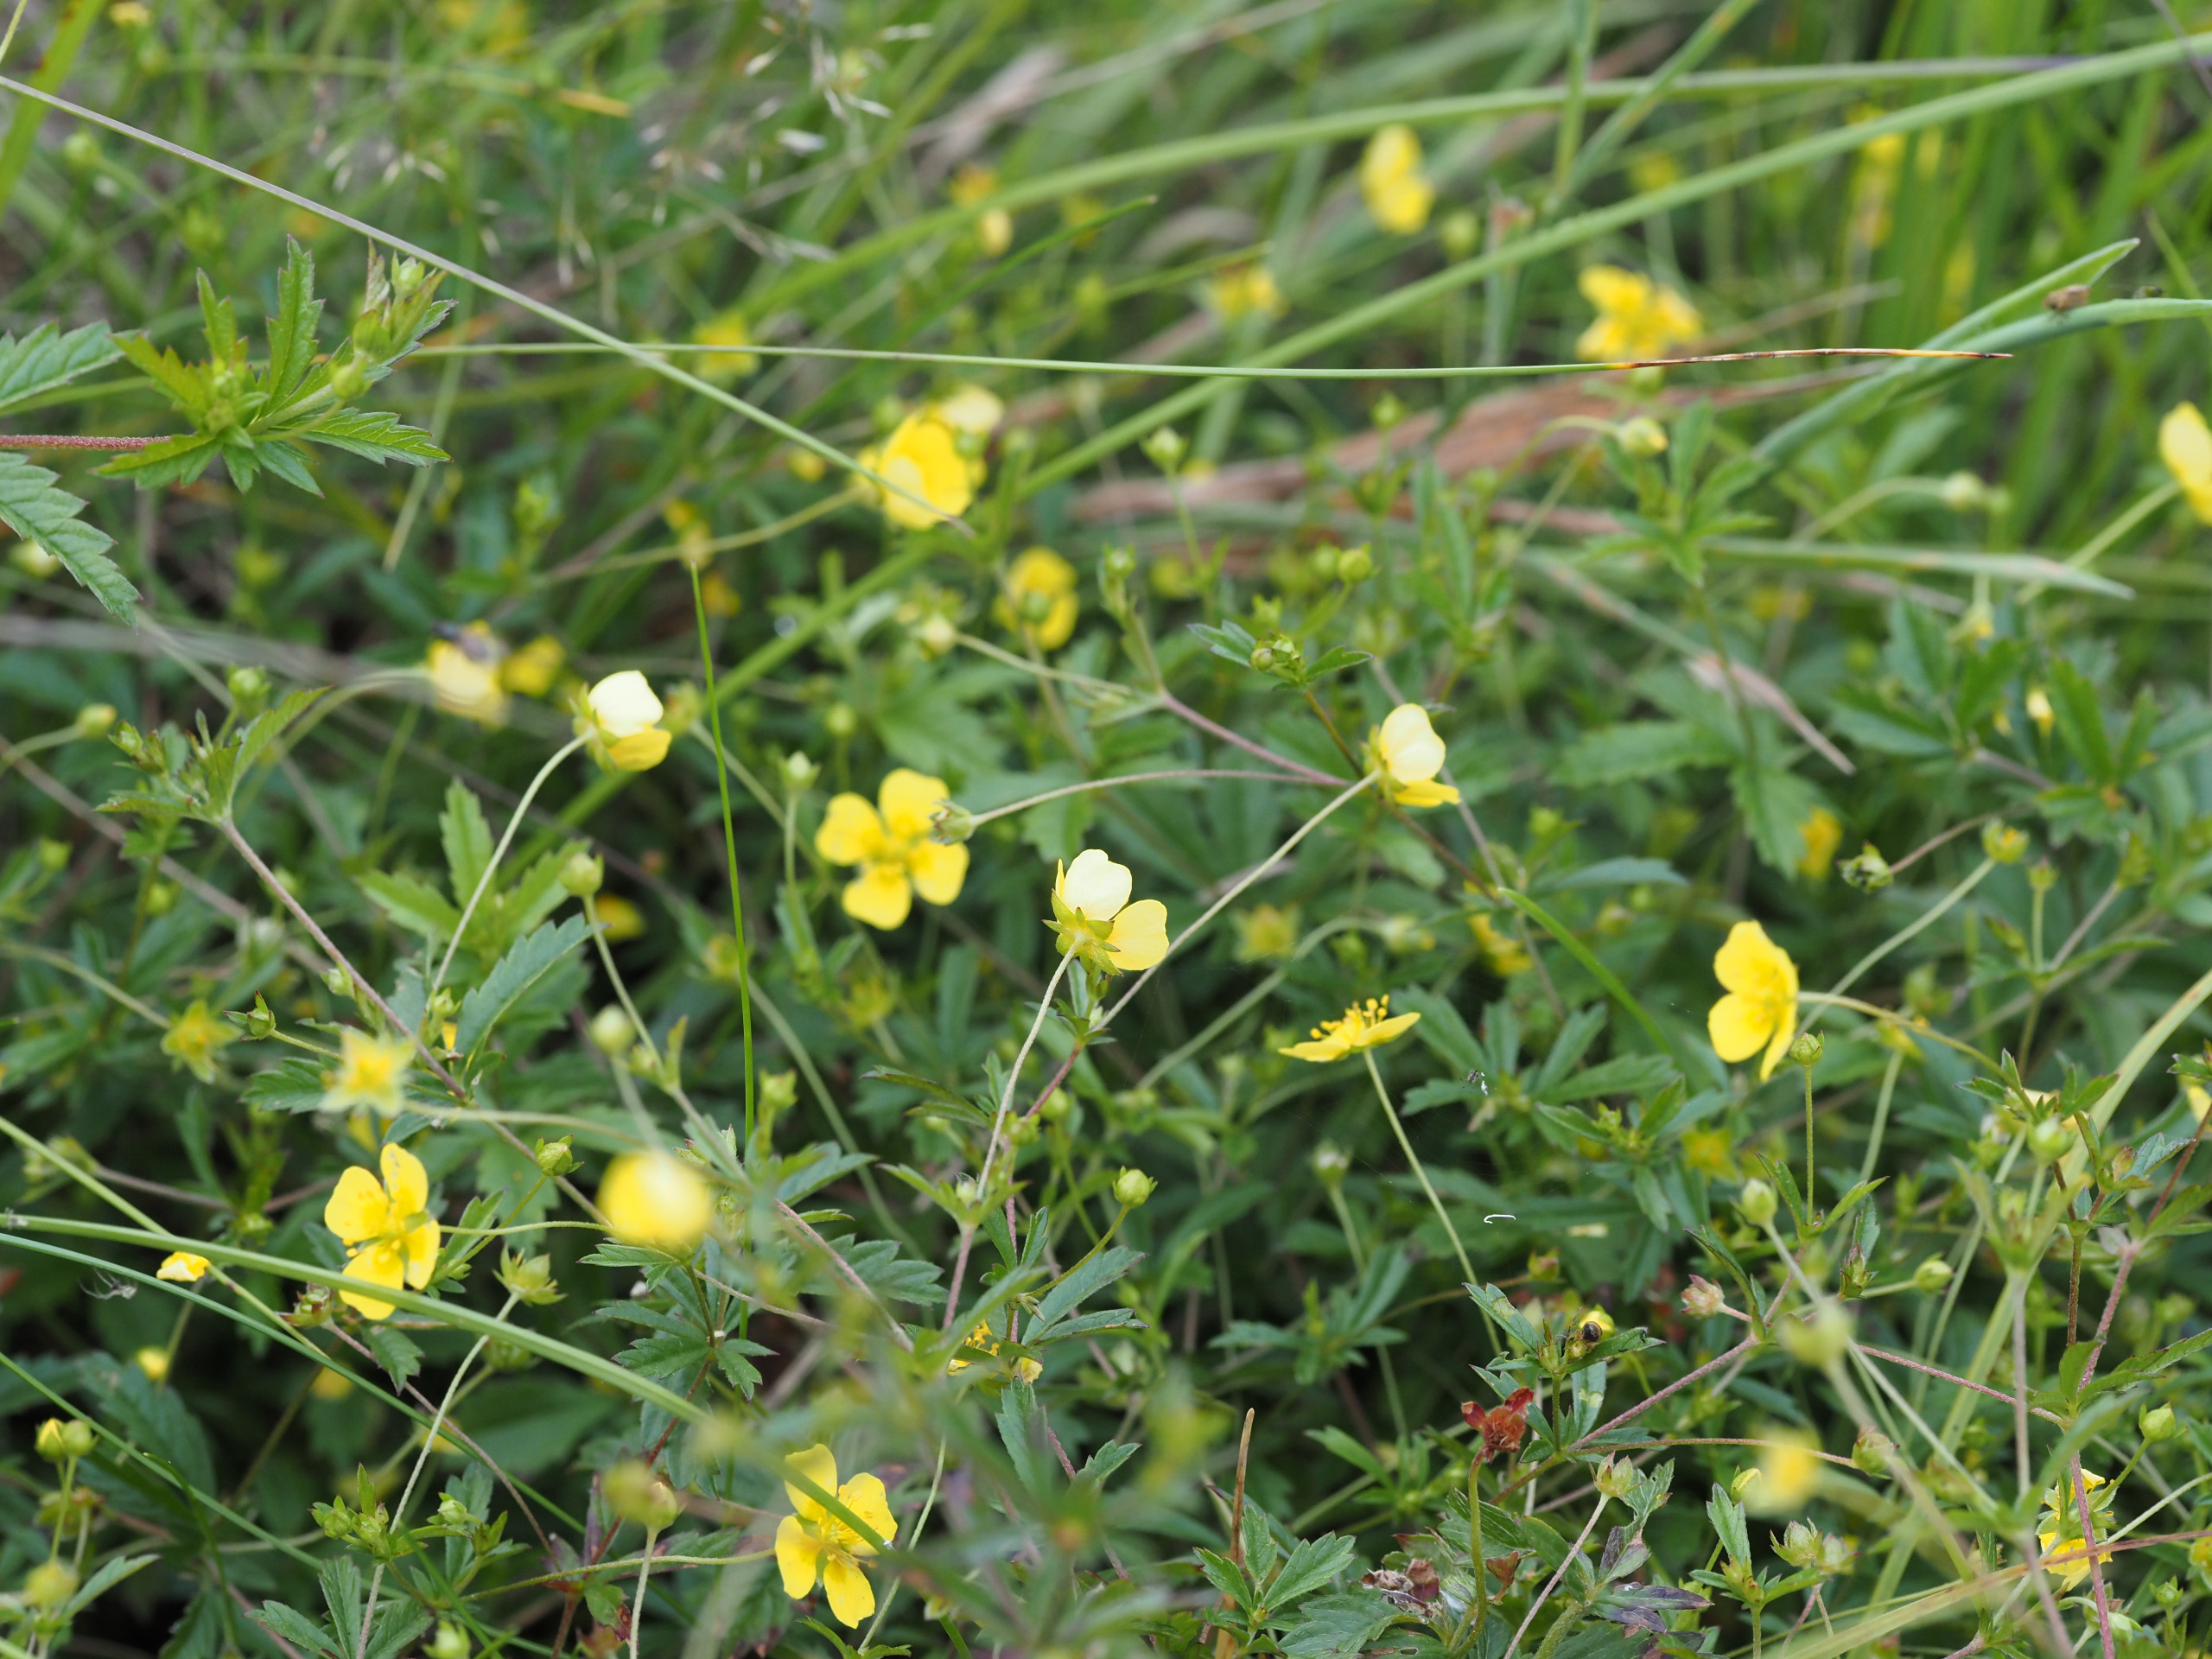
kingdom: Plantae
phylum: Tracheophyta
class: Magnoliopsida
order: Rosales
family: Rosaceae
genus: Potentilla
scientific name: Potentilla erecta
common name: Tormentil
